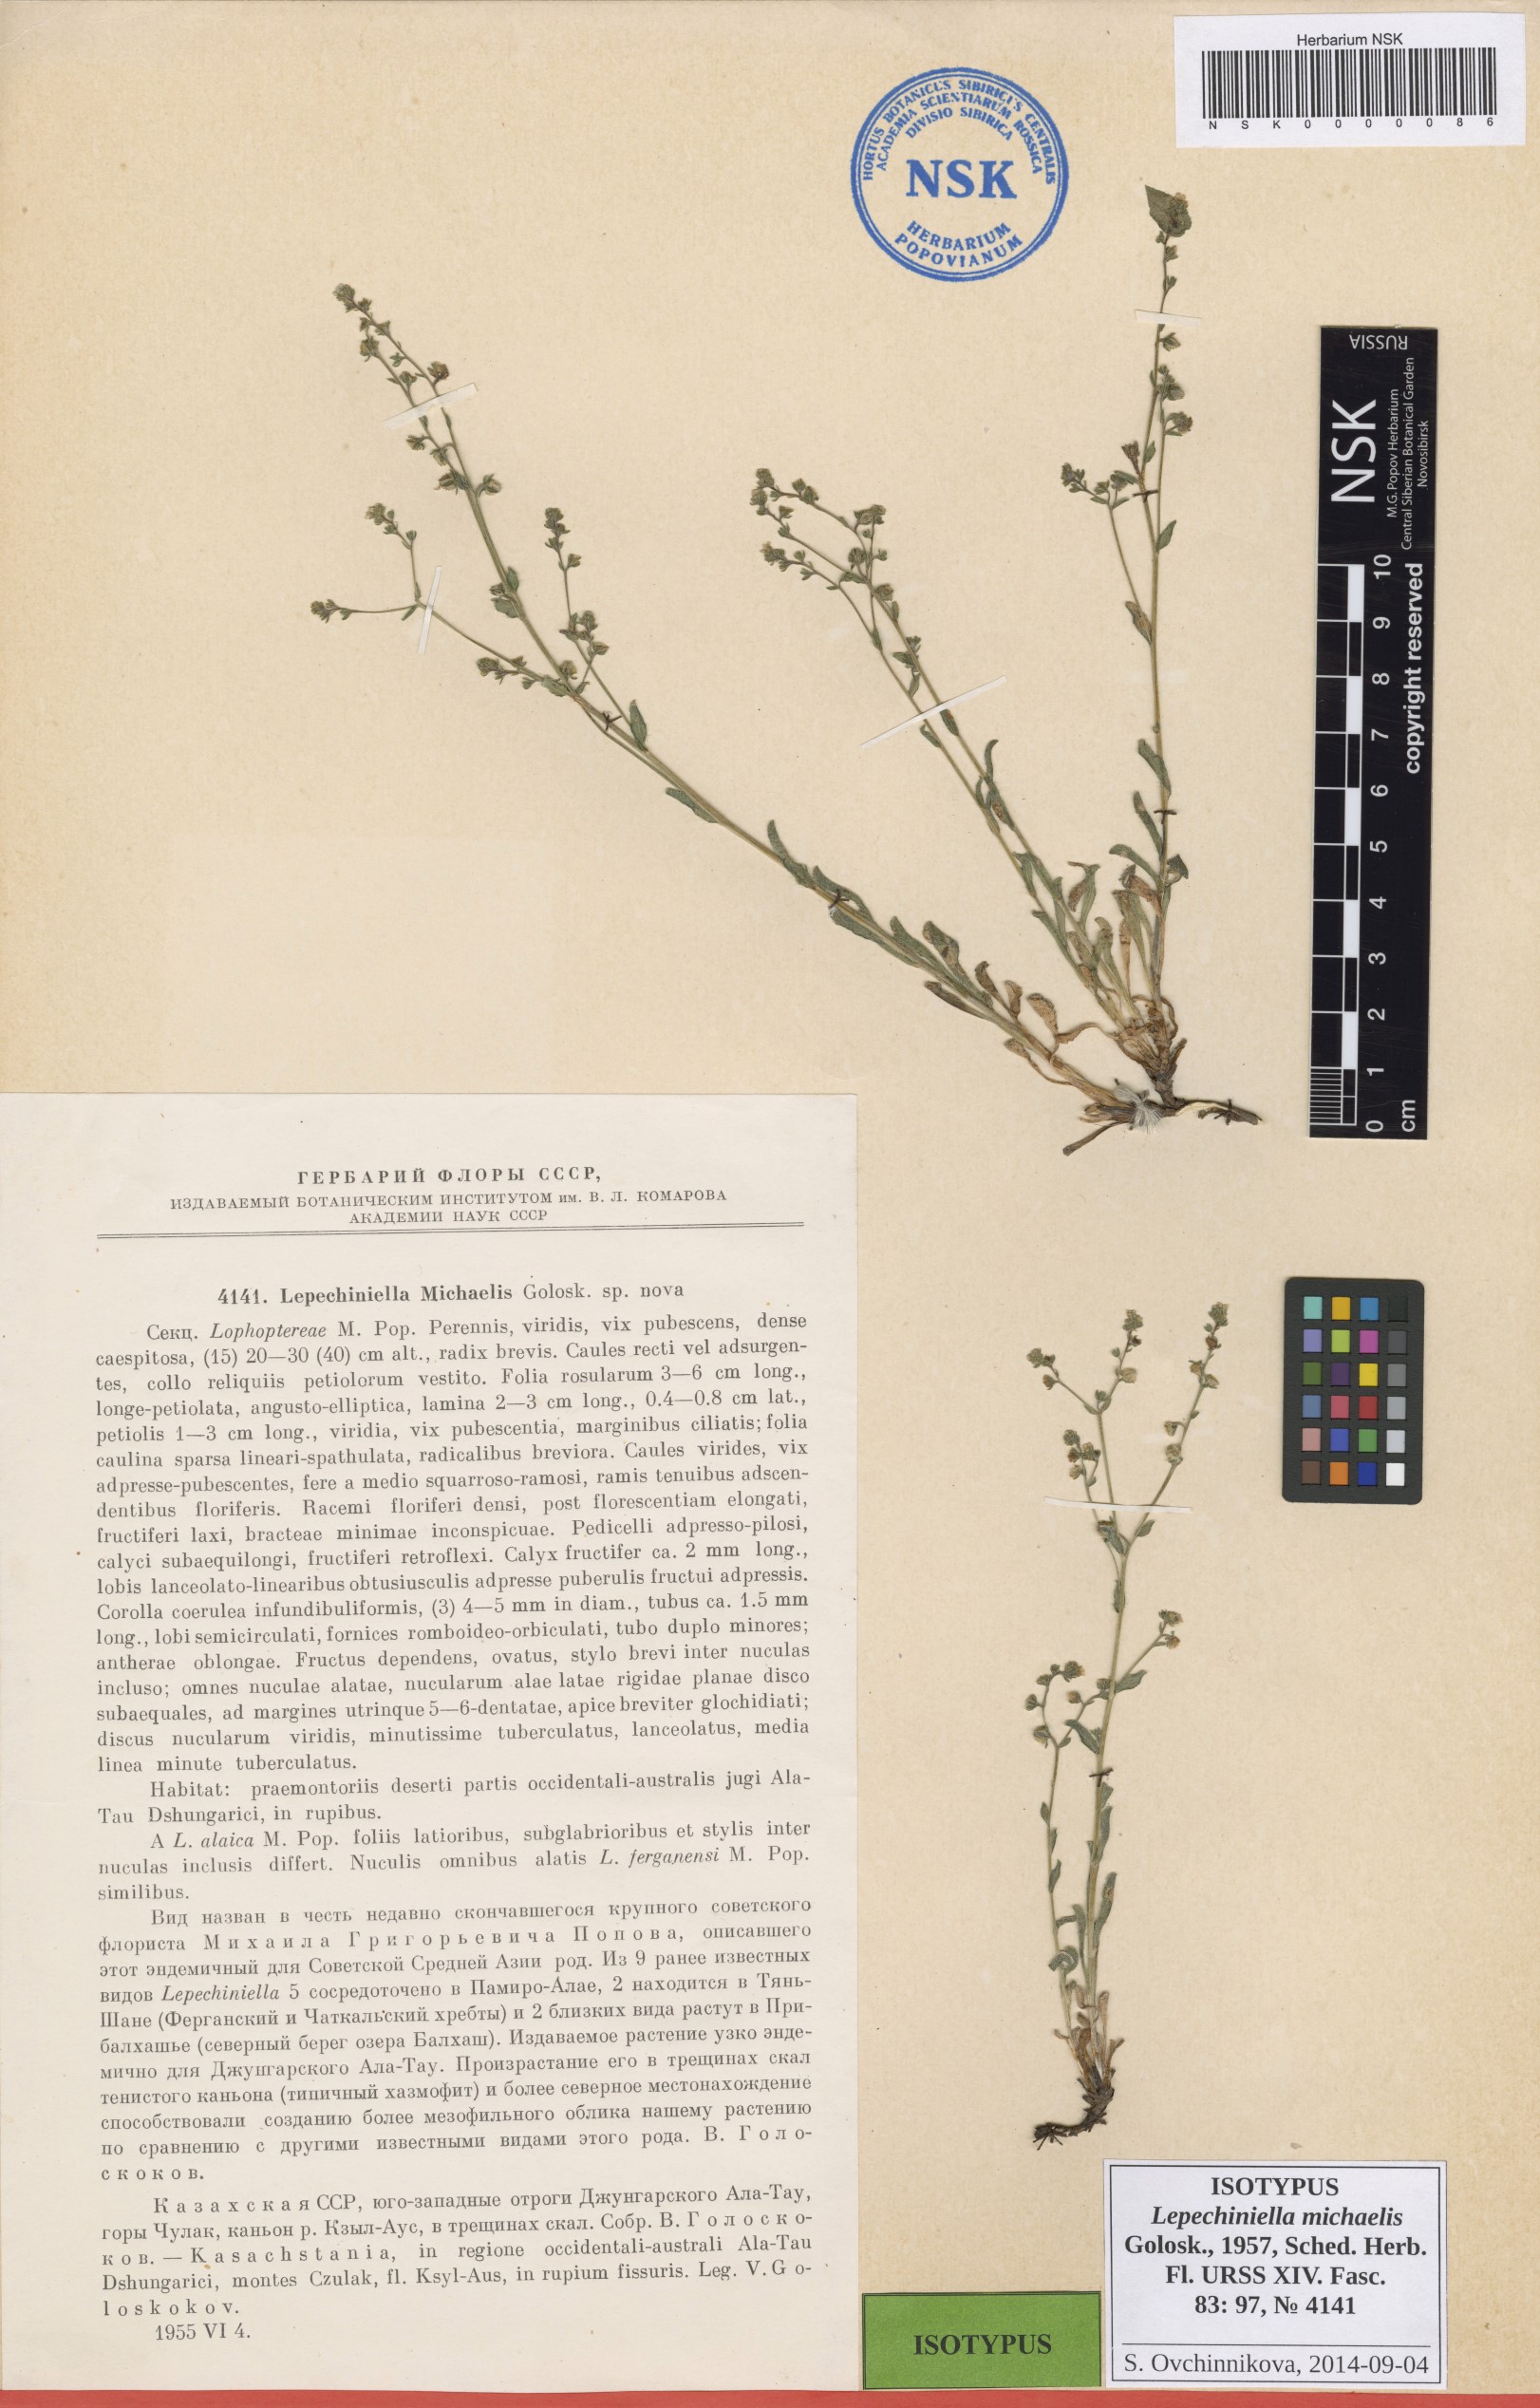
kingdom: Plantae
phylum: Tracheophyta
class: Magnoliopsida
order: Boraginales
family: Boraginaceae
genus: Lepechiniella
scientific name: Lepechiniella michaelis
